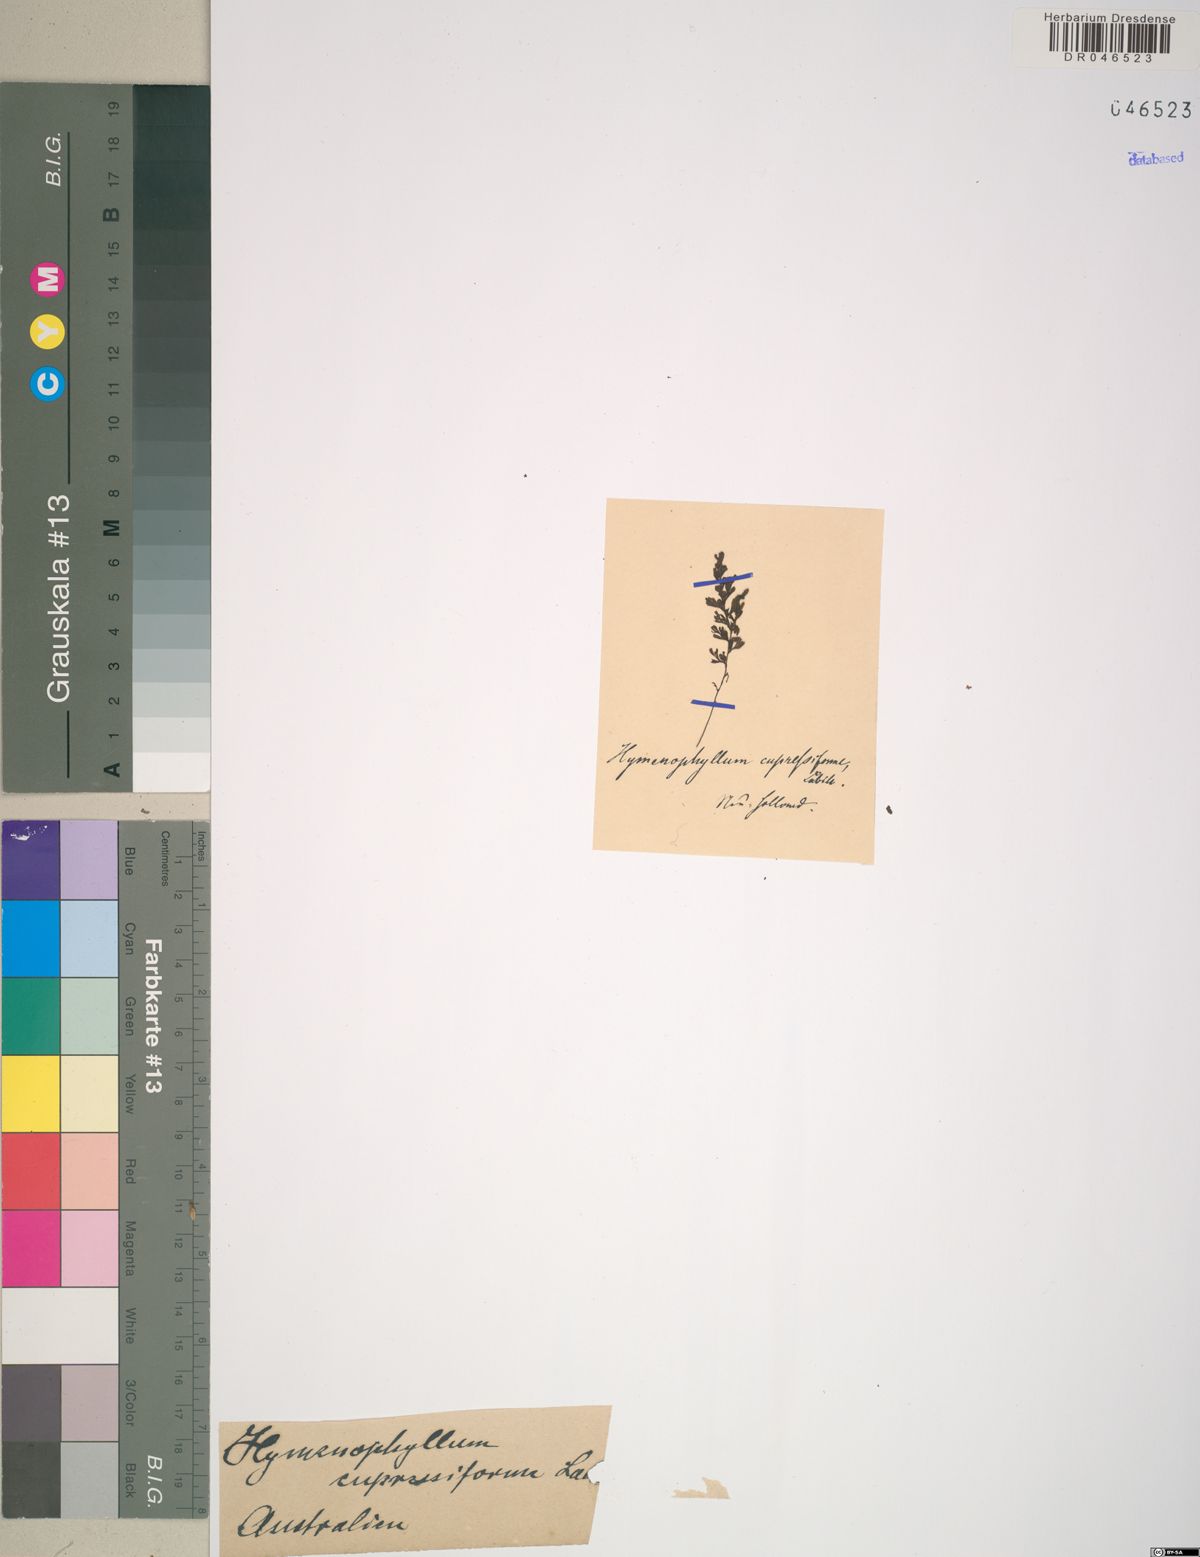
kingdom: Plantae
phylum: Tracheophyta
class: Polypodiopsida
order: Hymenophyllales
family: Hymenophyllaceae
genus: Hymenophyllum
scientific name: Hymenophyllum cupressiforme
